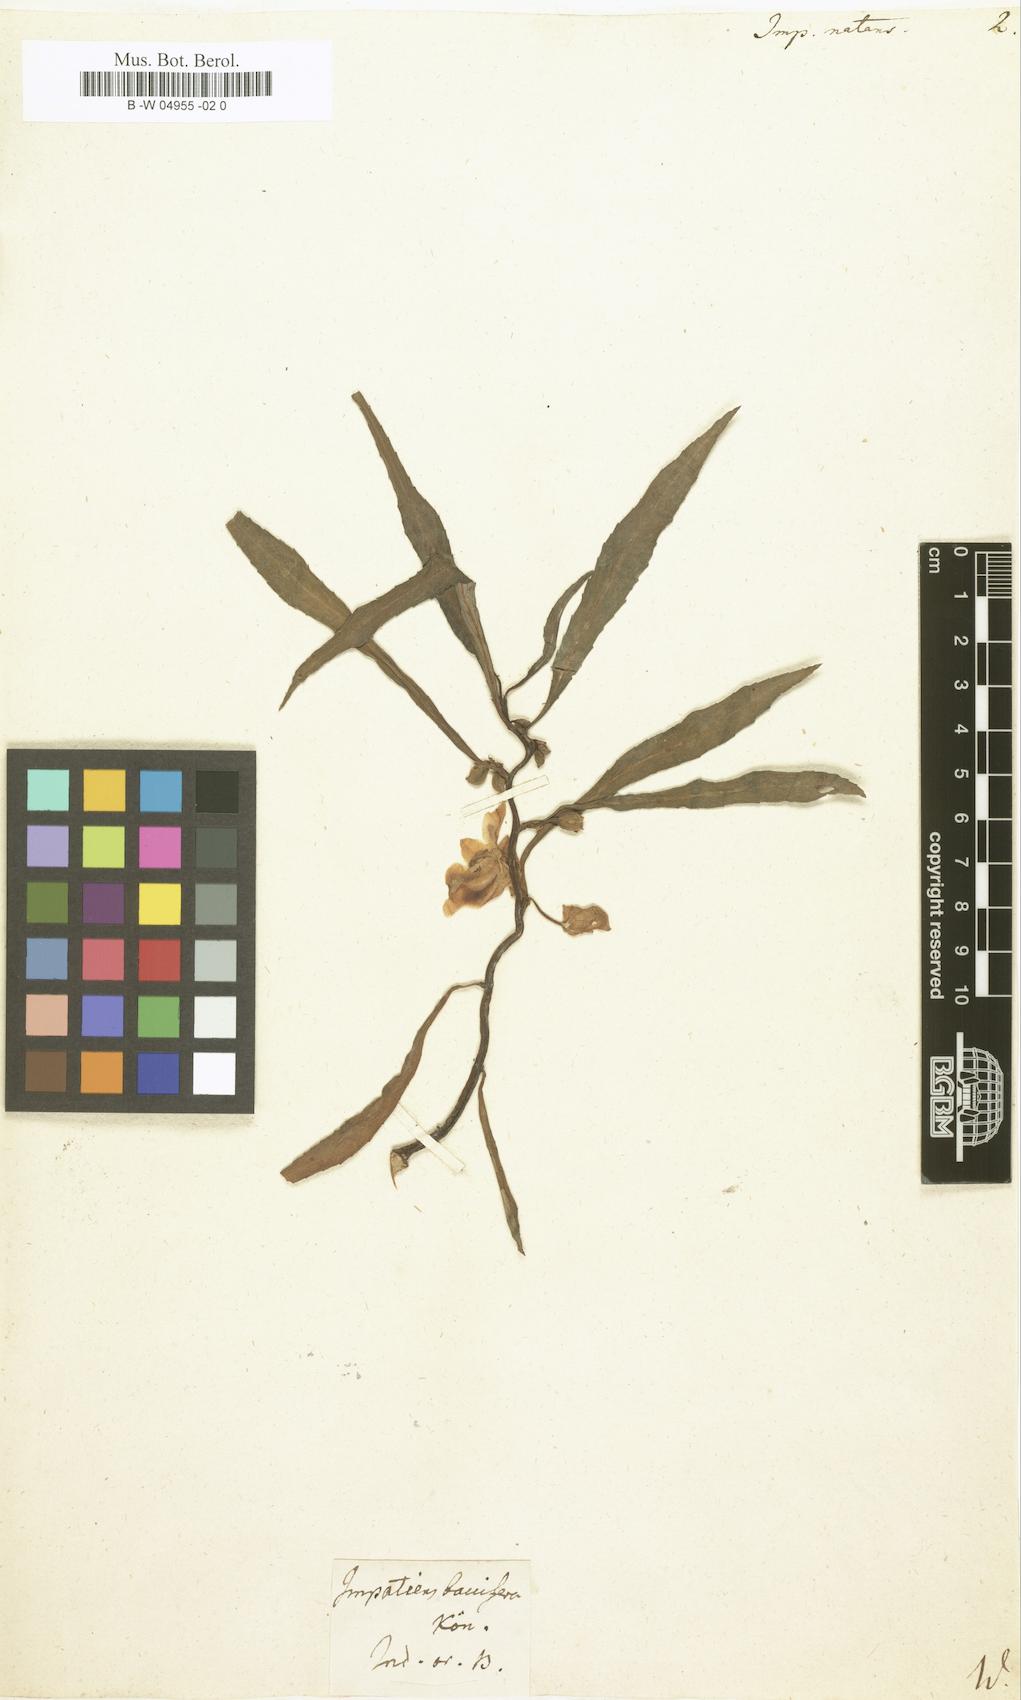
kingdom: Plantae
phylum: Tracheophyta
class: Magnoliopsida
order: Ericales
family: Balsaminaceae
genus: Hydrocera
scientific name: Hydrocera triflora
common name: Marsh henna
